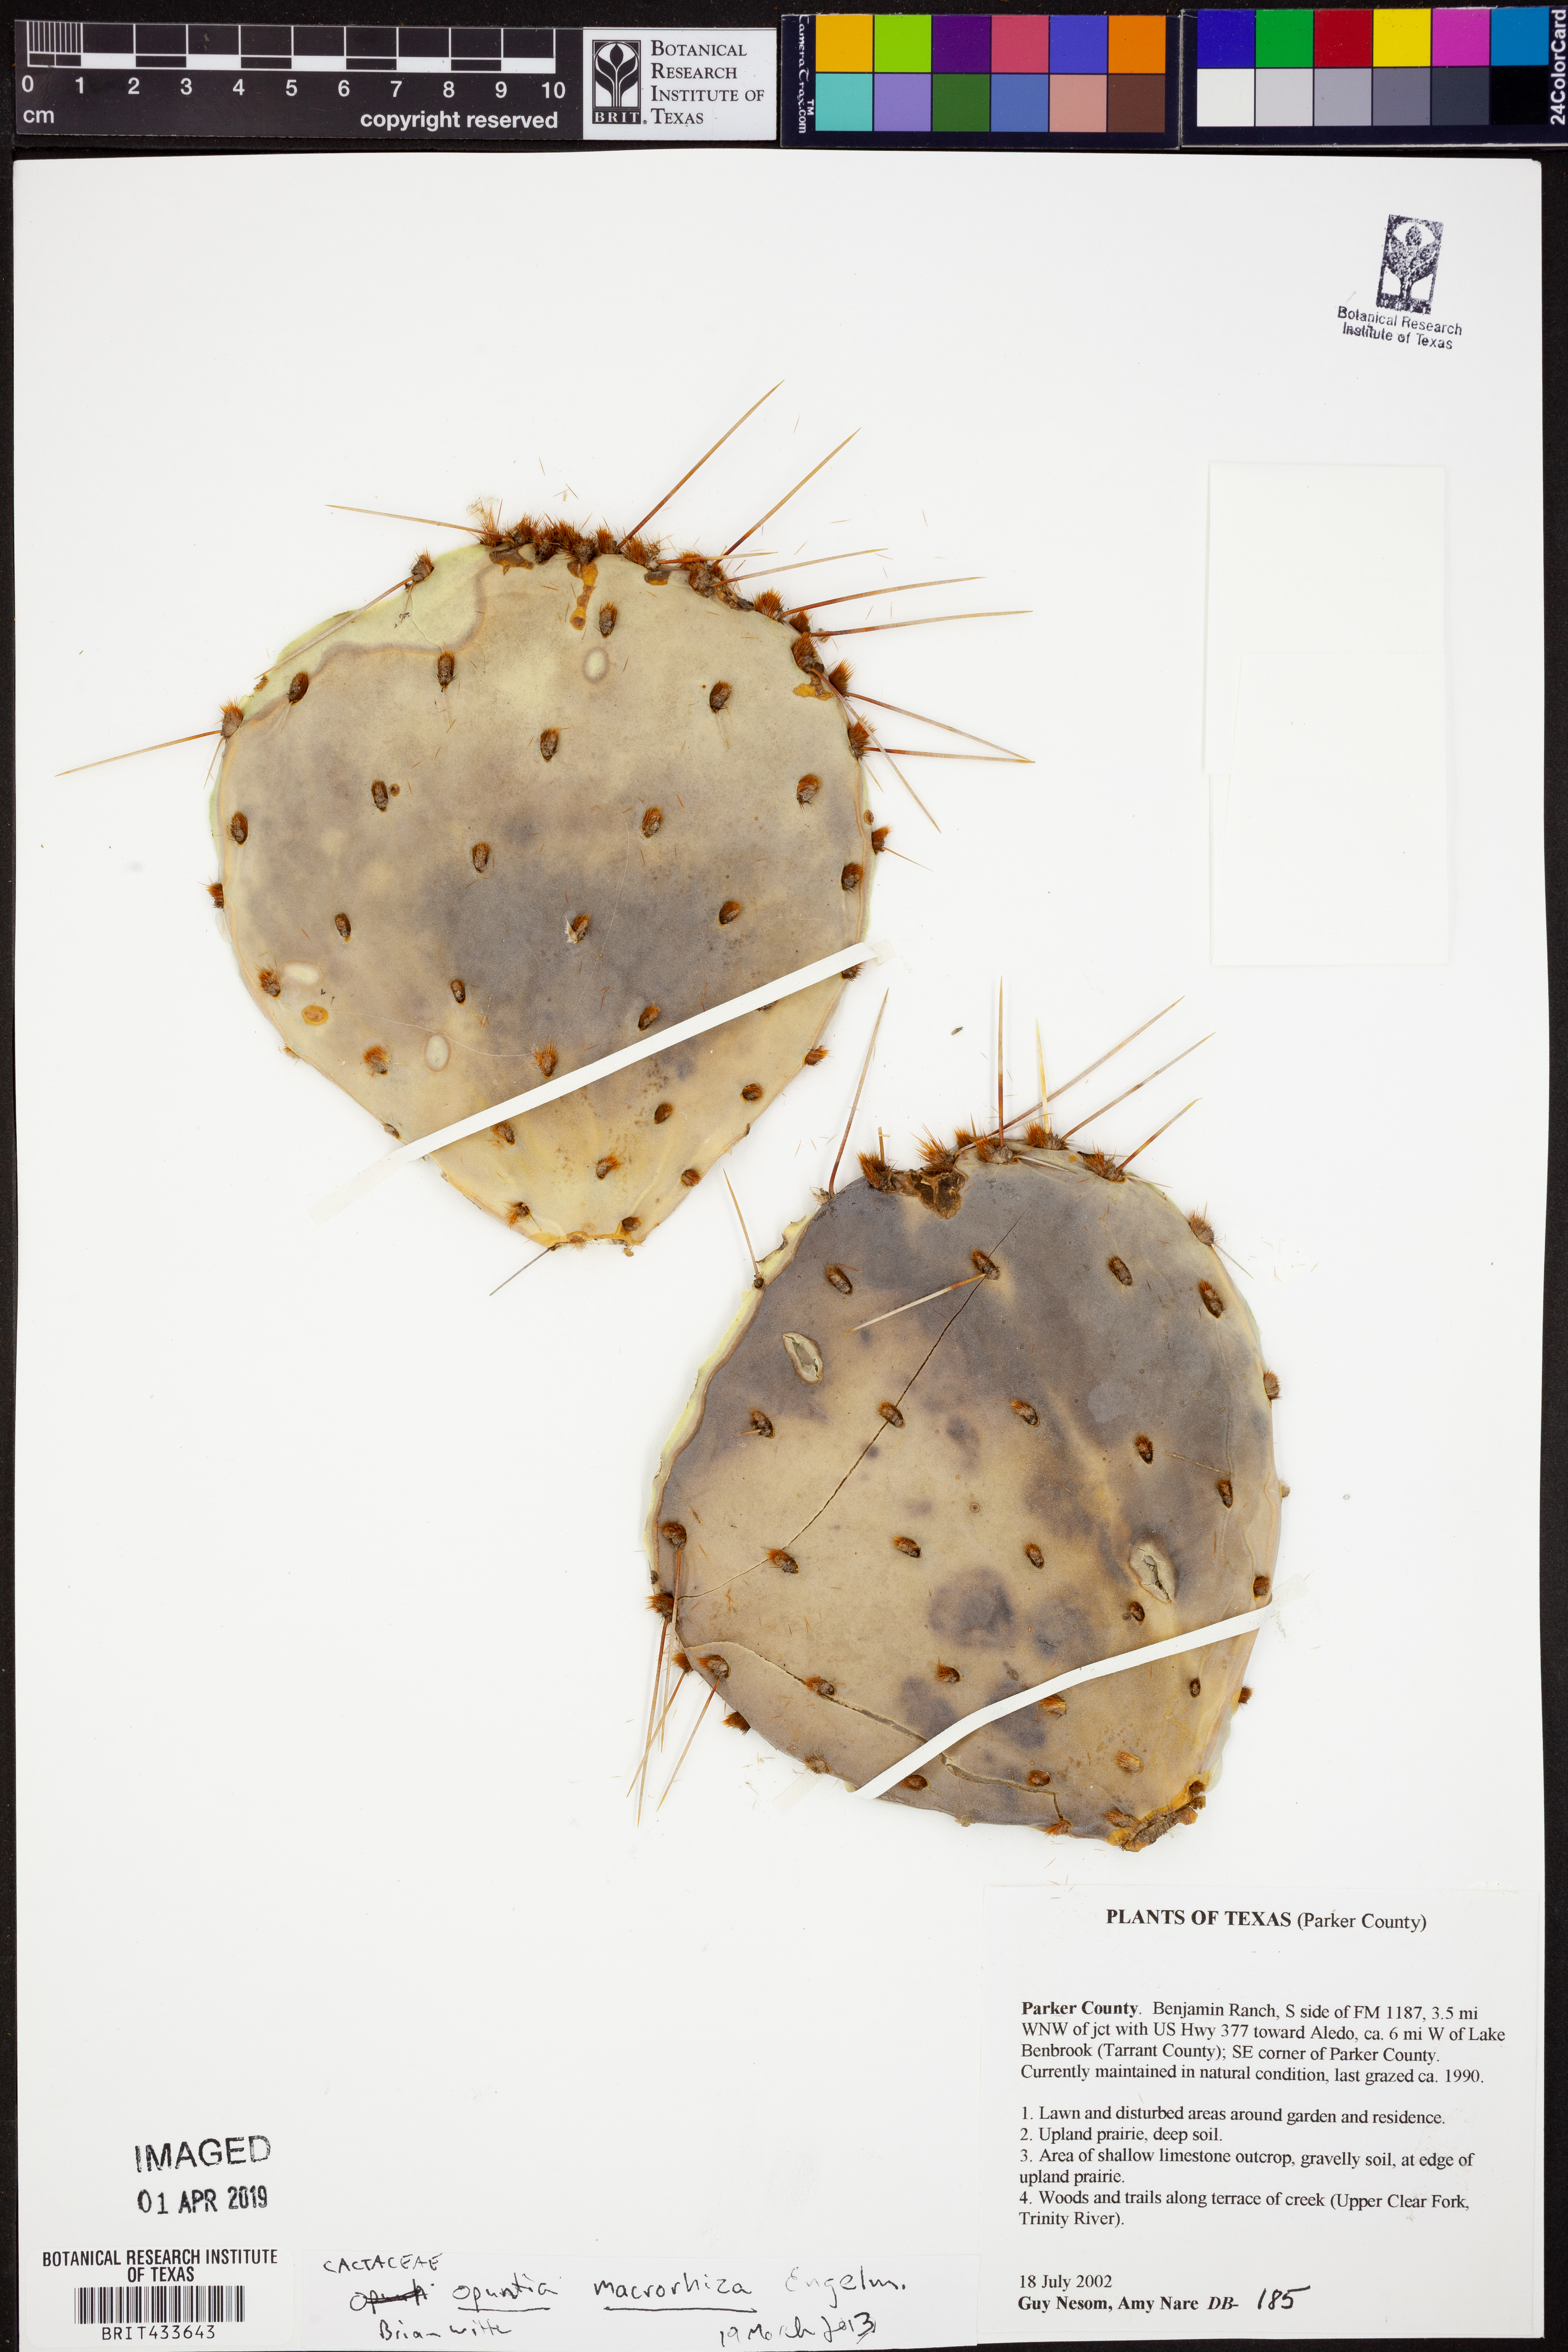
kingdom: Plantae
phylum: Tracheophyta
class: Magnoliopsida
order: Caryophyllales
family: Cactaceae
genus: Opuntia
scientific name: Opuntia macrorhiza
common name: Grassland pricklypear
